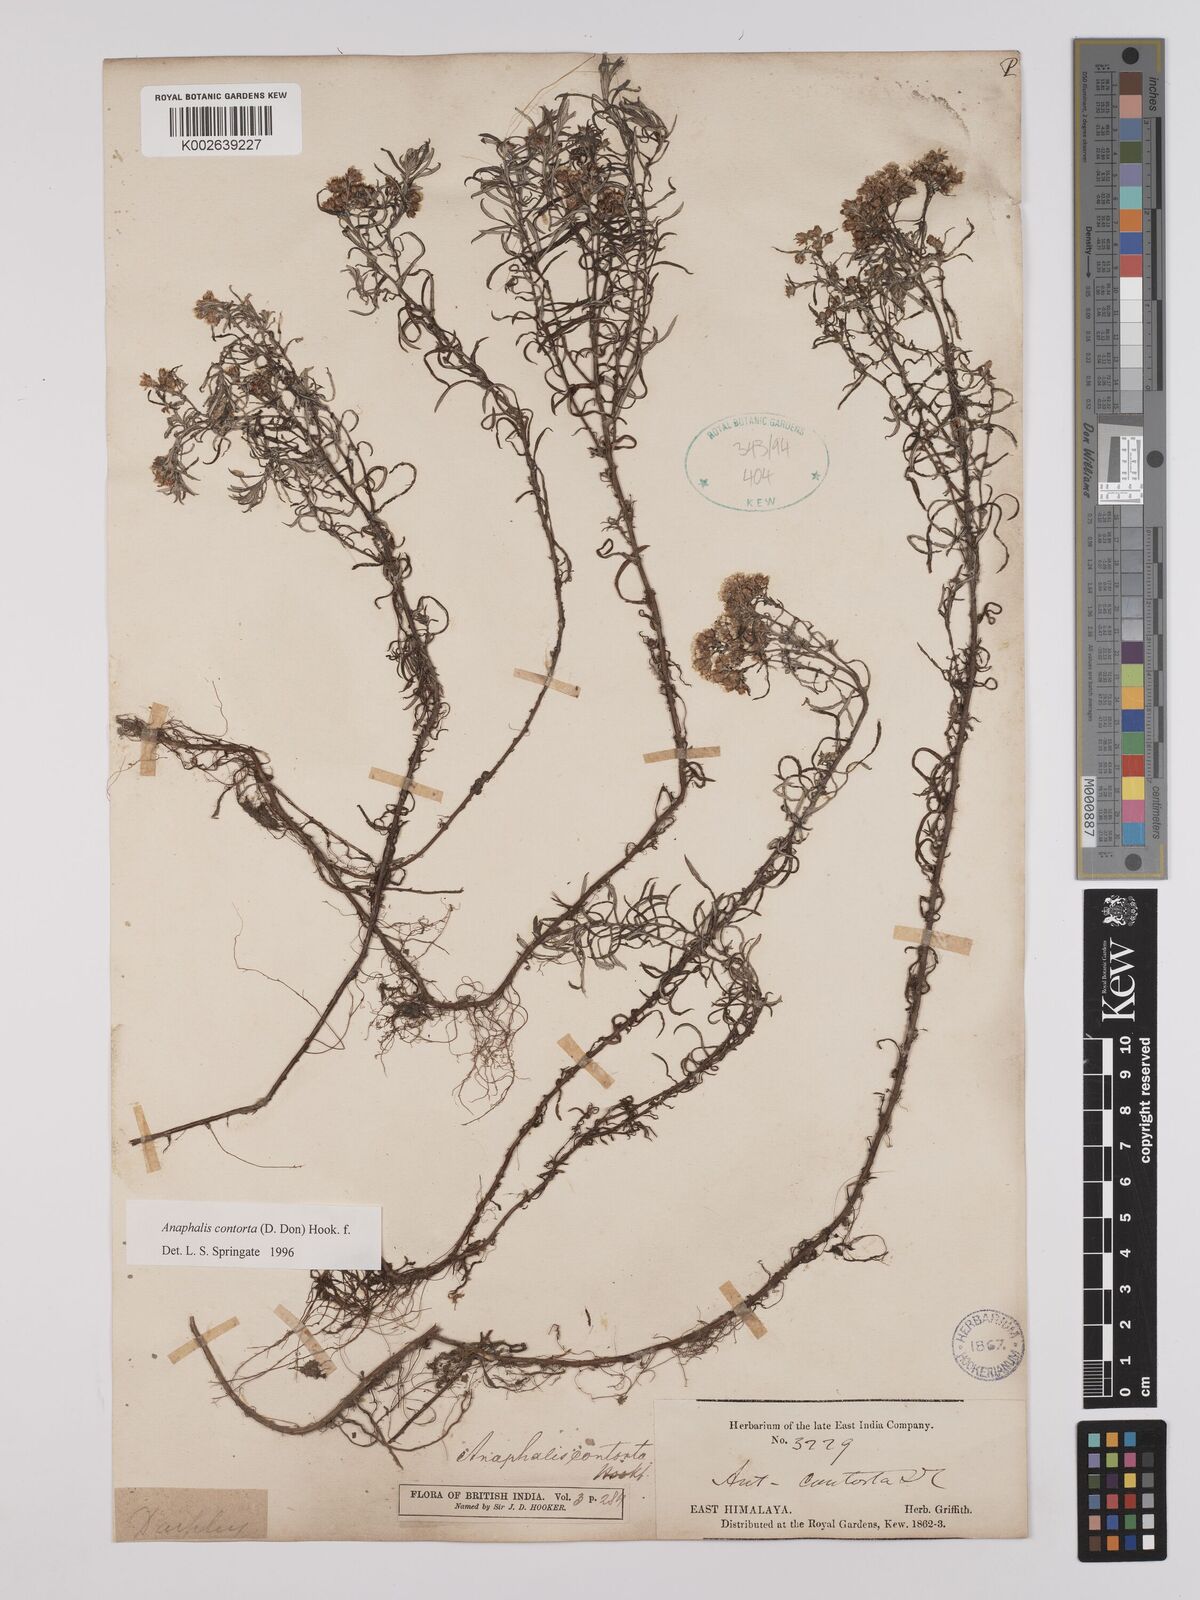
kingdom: Plantae
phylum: Tracheophyta
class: Magnoliopsida
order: Asterales
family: Asteraceae
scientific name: Asteraceae
